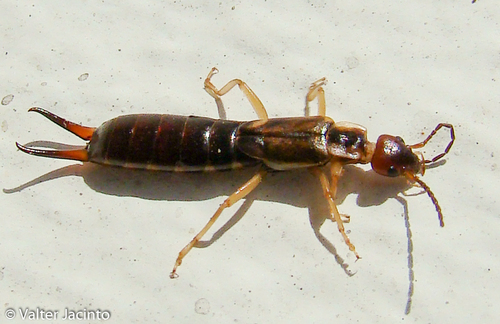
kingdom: Animalia
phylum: Arthropoda
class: Insecta
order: Dermaptera
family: Forficulidae
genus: Forficula
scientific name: Forficula auricularia
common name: European earwig
